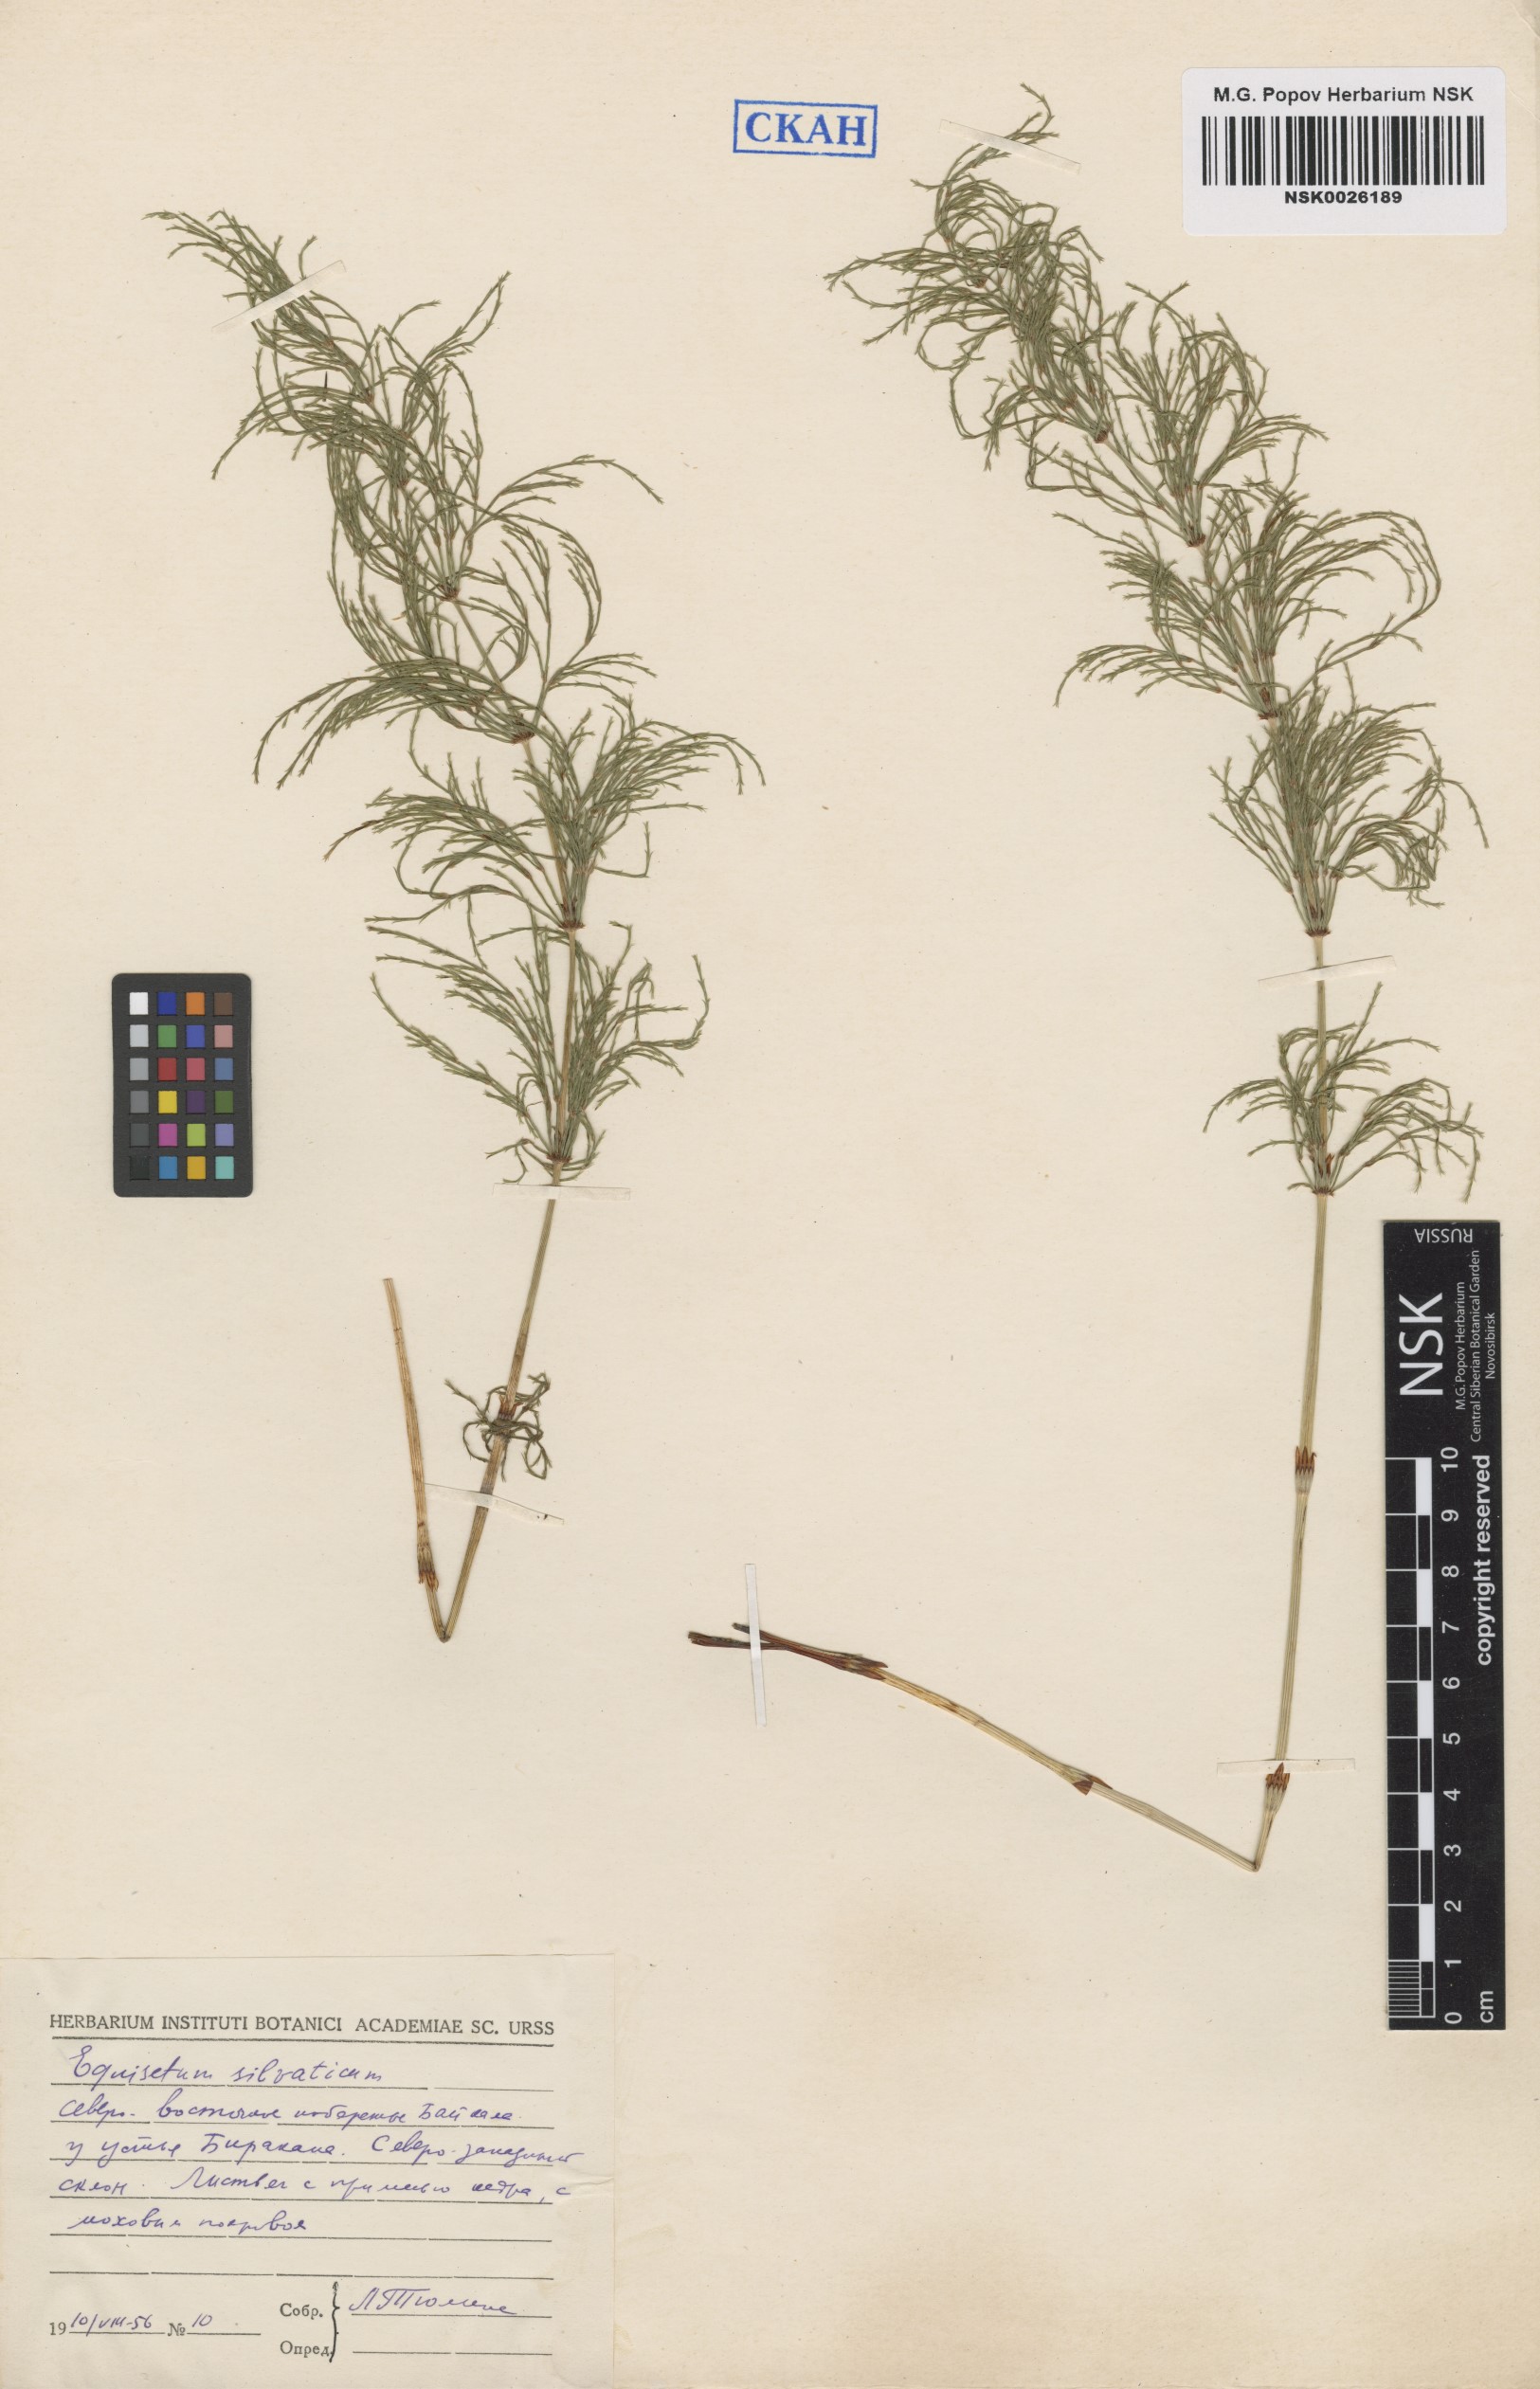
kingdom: Plantae
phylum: Tracheophyta
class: Polypodiopsida
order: Equisetales
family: Equisetaceae
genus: Equisetum
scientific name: Equisetum sylvaticum
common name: Wood horsetail
